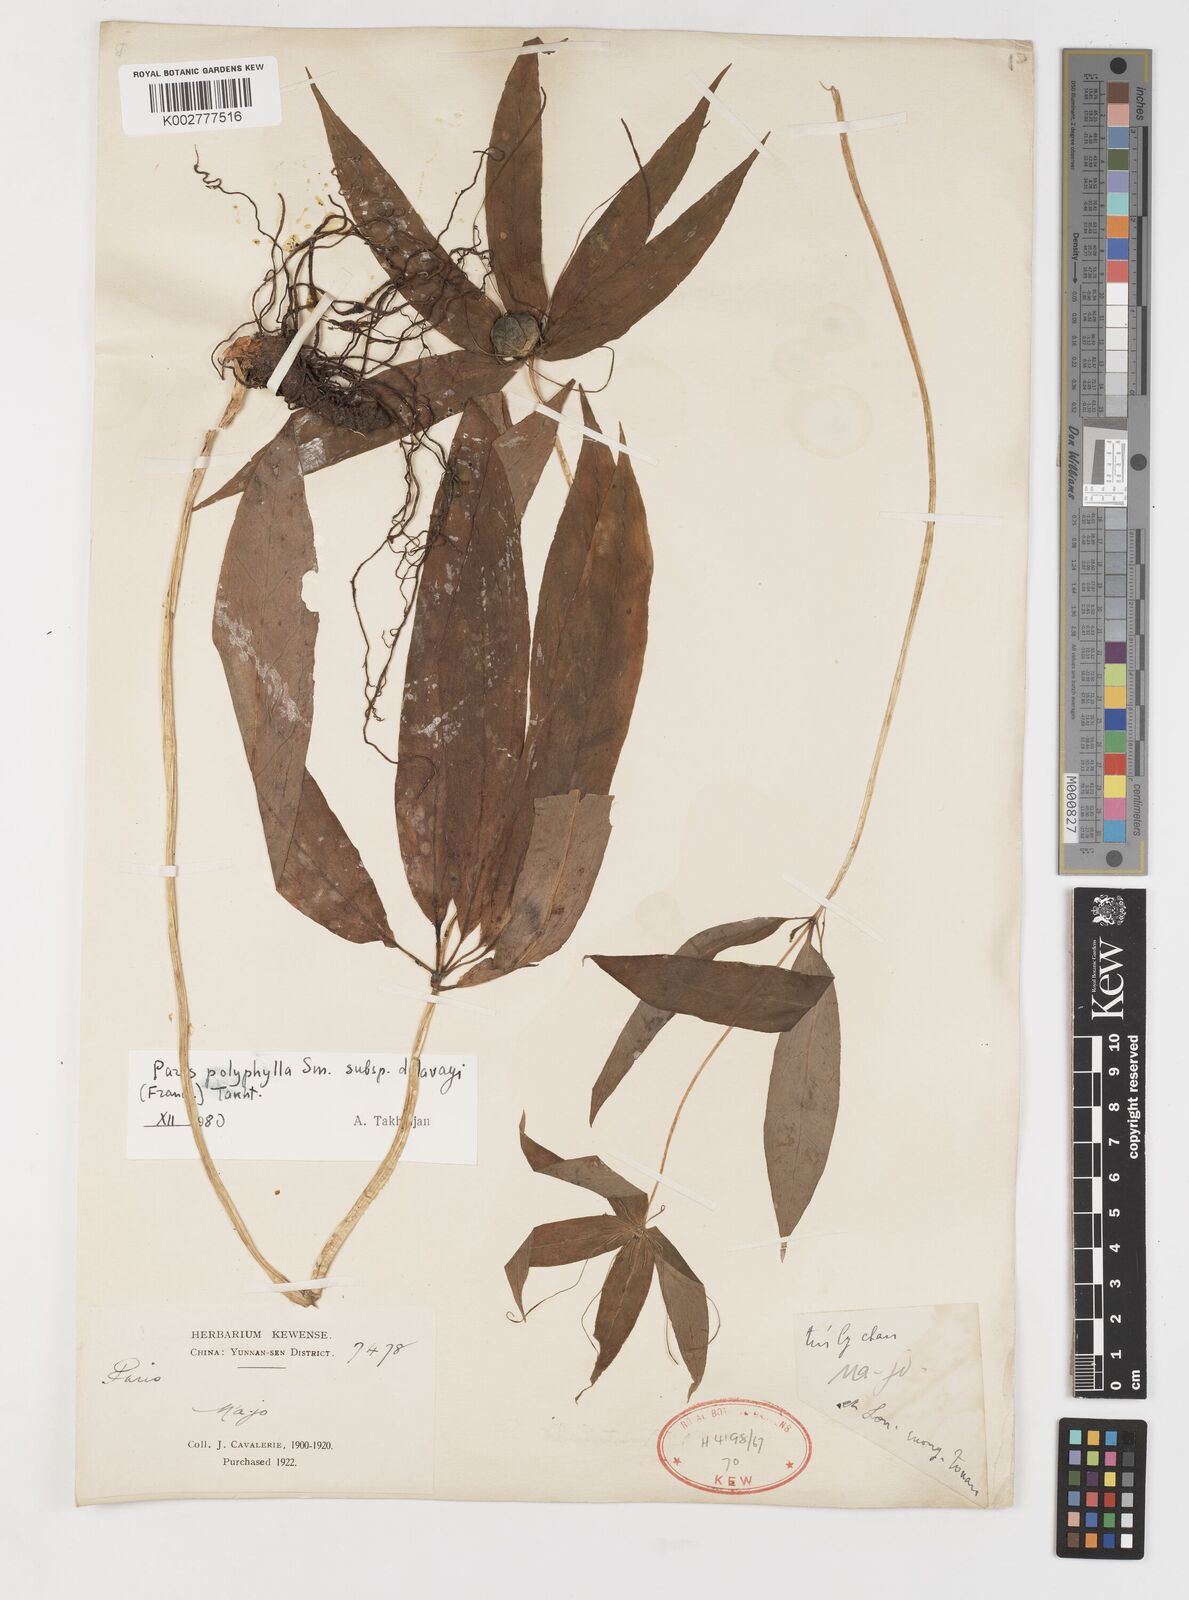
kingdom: Plantae
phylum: Tracheophyta
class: Liliopsida
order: Liliales
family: Melanthiaceae
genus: Paris
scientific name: Paris delavayi
